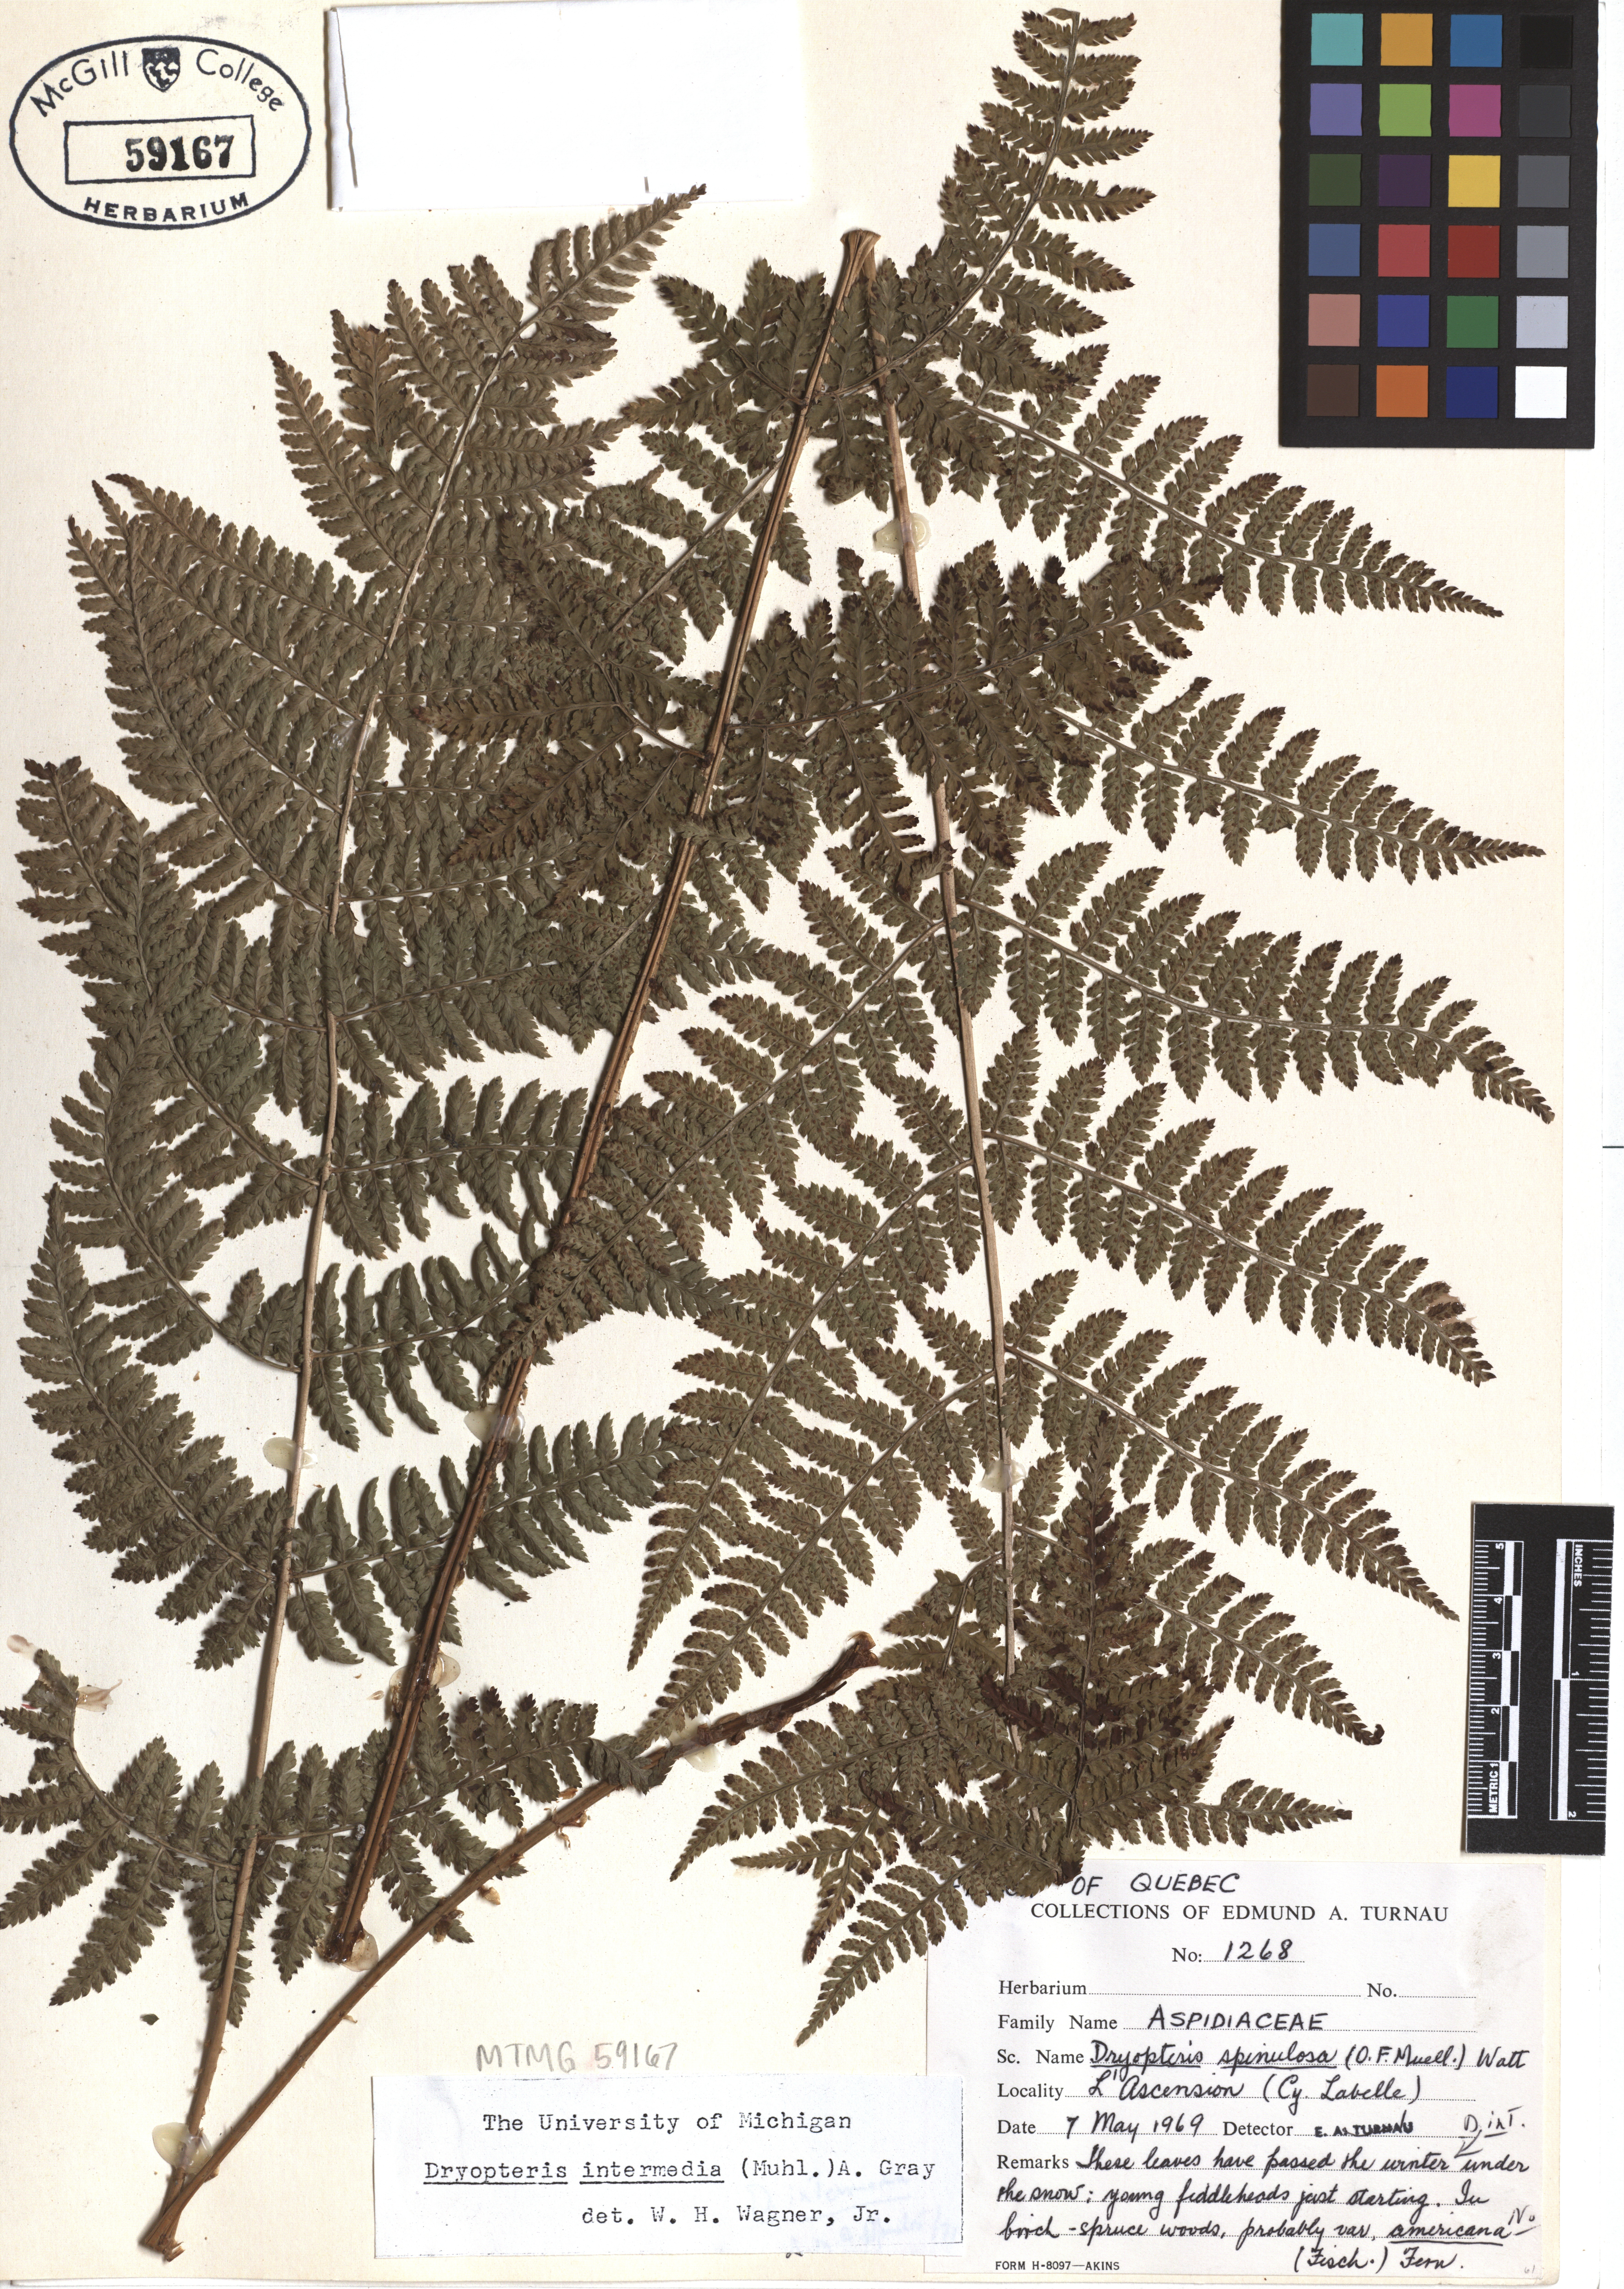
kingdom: Plantae
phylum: Tracheophyta
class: Polypodiopsida
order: Polypodiales
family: Dryopteridaceae
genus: Dryopteris
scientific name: Dryopteris intermedia
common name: Evergreen wood fern
